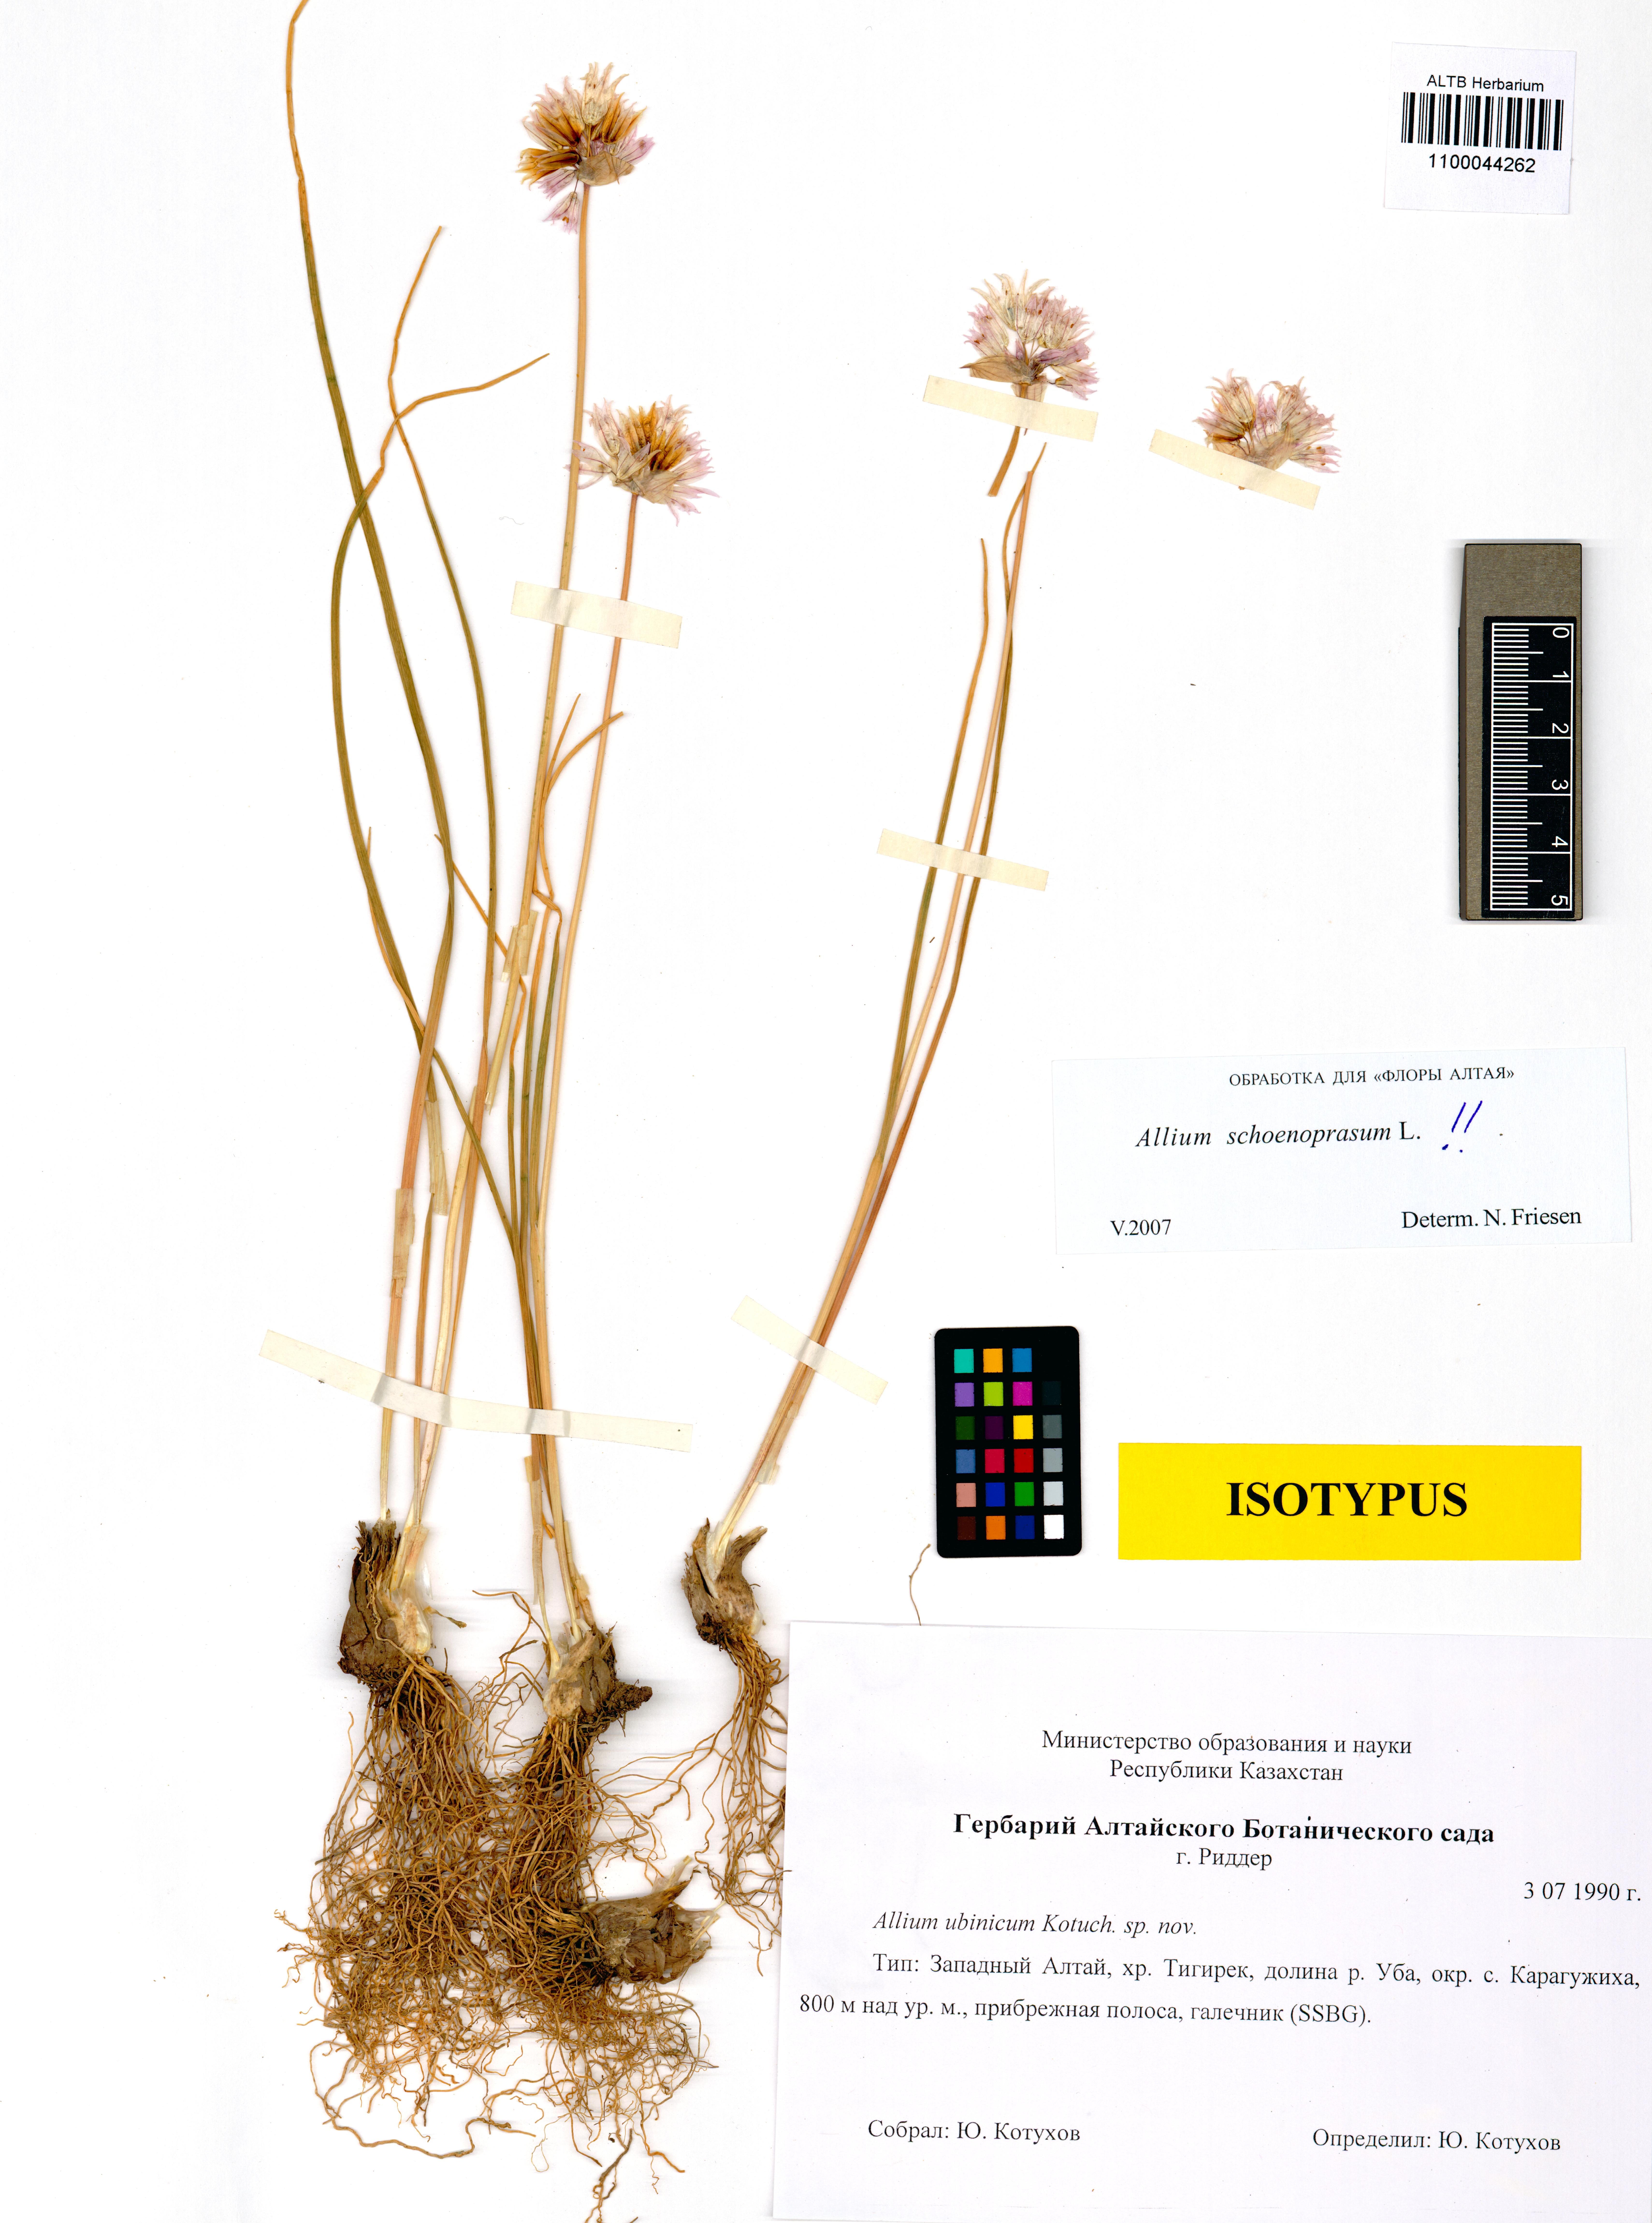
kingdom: Plantae
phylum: Tracheophyta
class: Liliopsida
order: Asparagales
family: Amaryllidaceae
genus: Allium
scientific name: Allium schoenoprasum
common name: Chives
